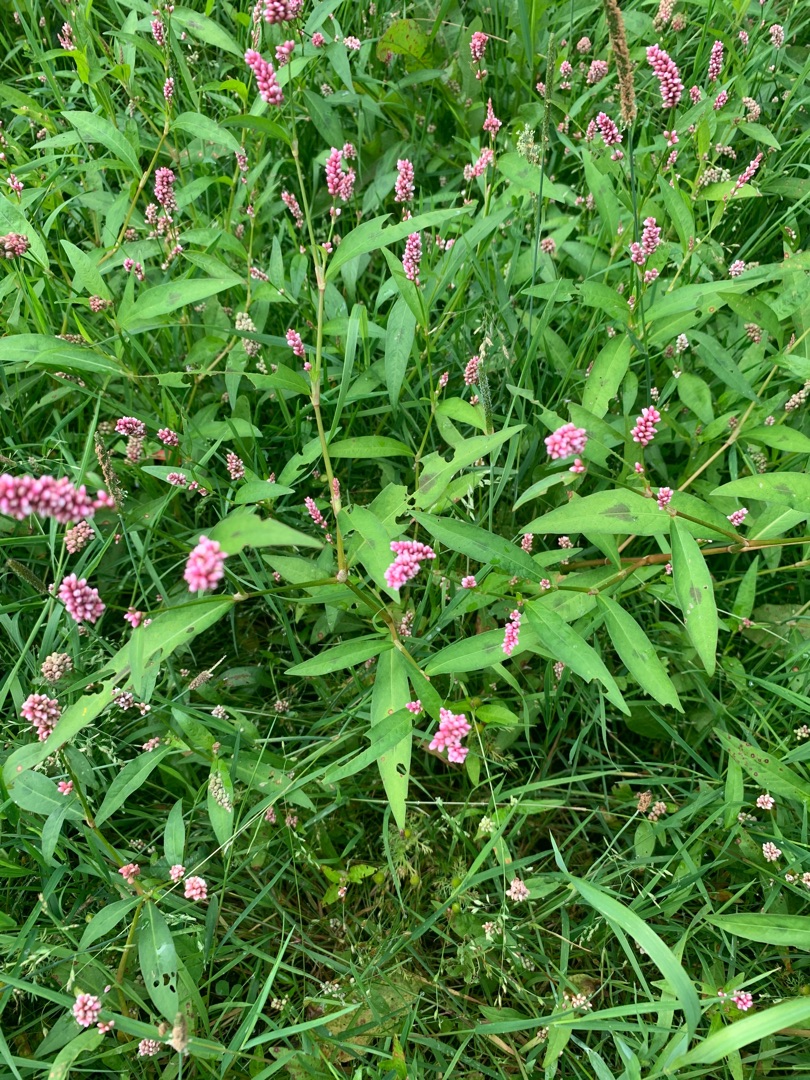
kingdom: Plantae
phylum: Tracheophyta
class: Magnoliopsida
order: Caryophyllales
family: Polygonaceae
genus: Persicaria
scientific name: Persicaria maculosa
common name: Fersken-pileurt
